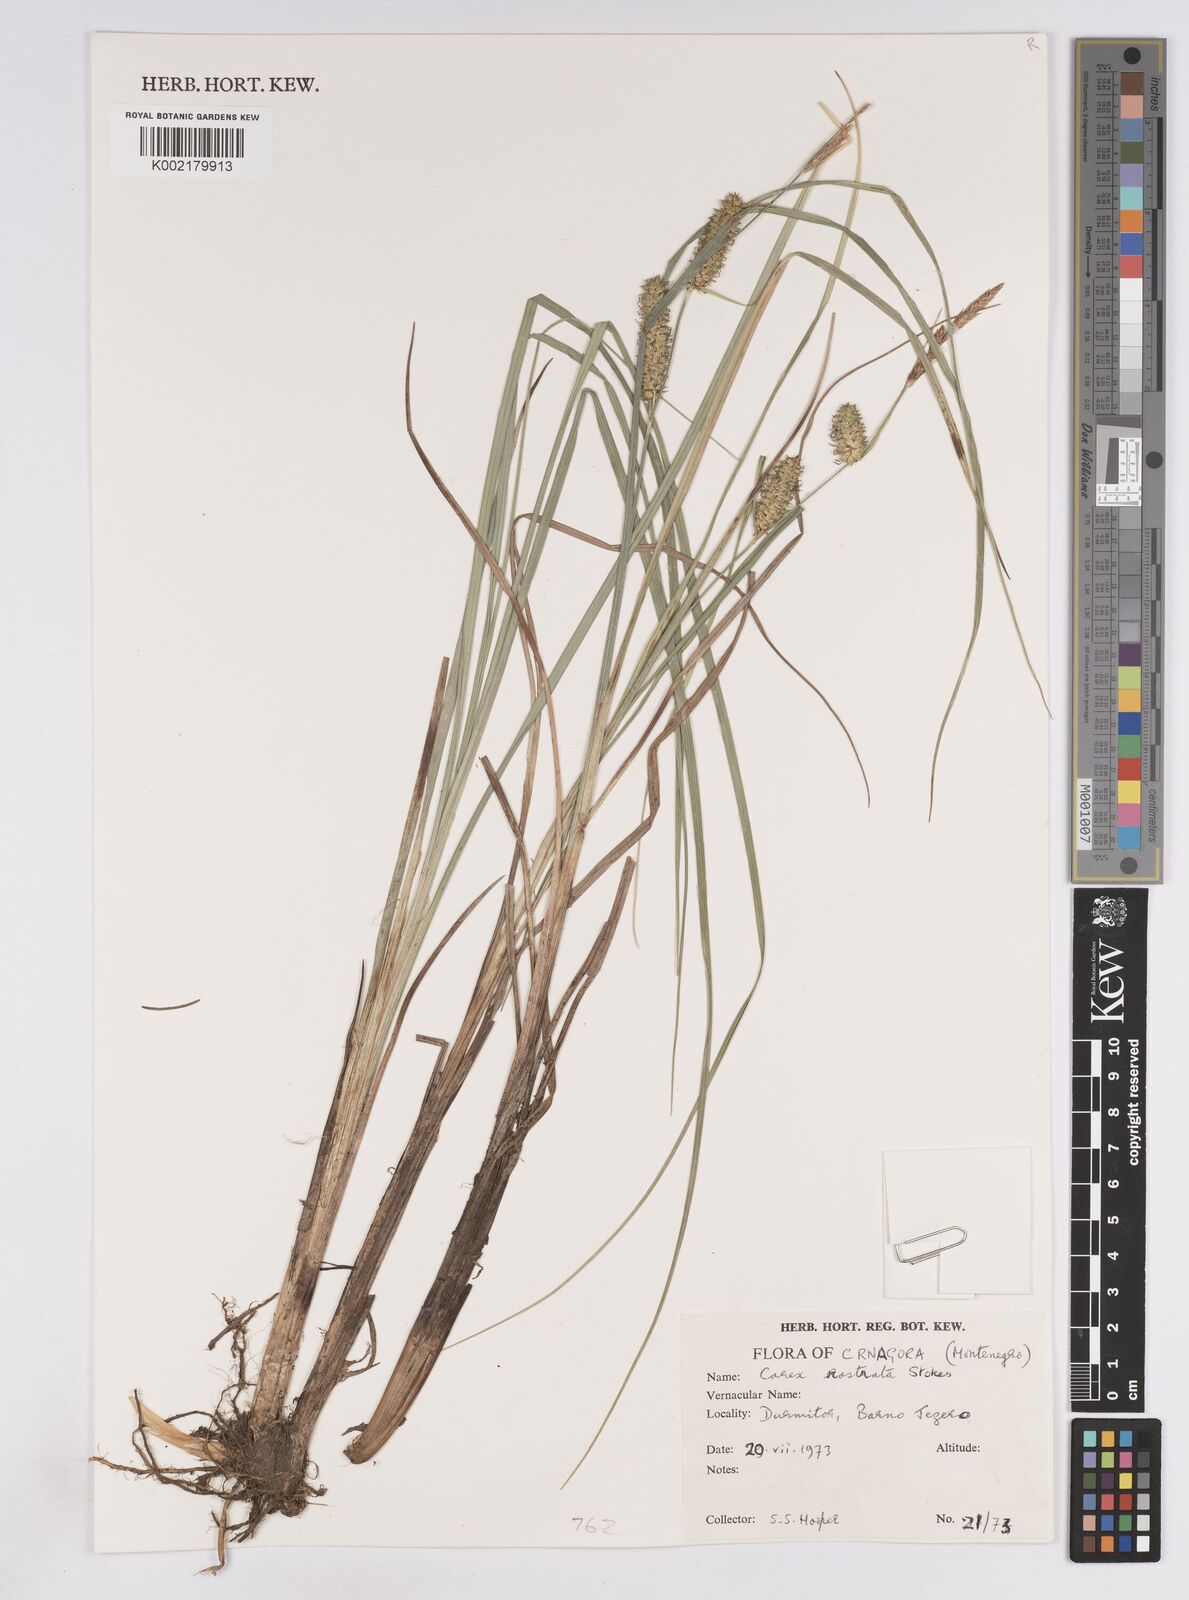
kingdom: Plantae
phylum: Tracheophyta
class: Liliopsida
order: Poales
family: Cyperaceae
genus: Carex
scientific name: Carex rostrata
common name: Bottle sedge
